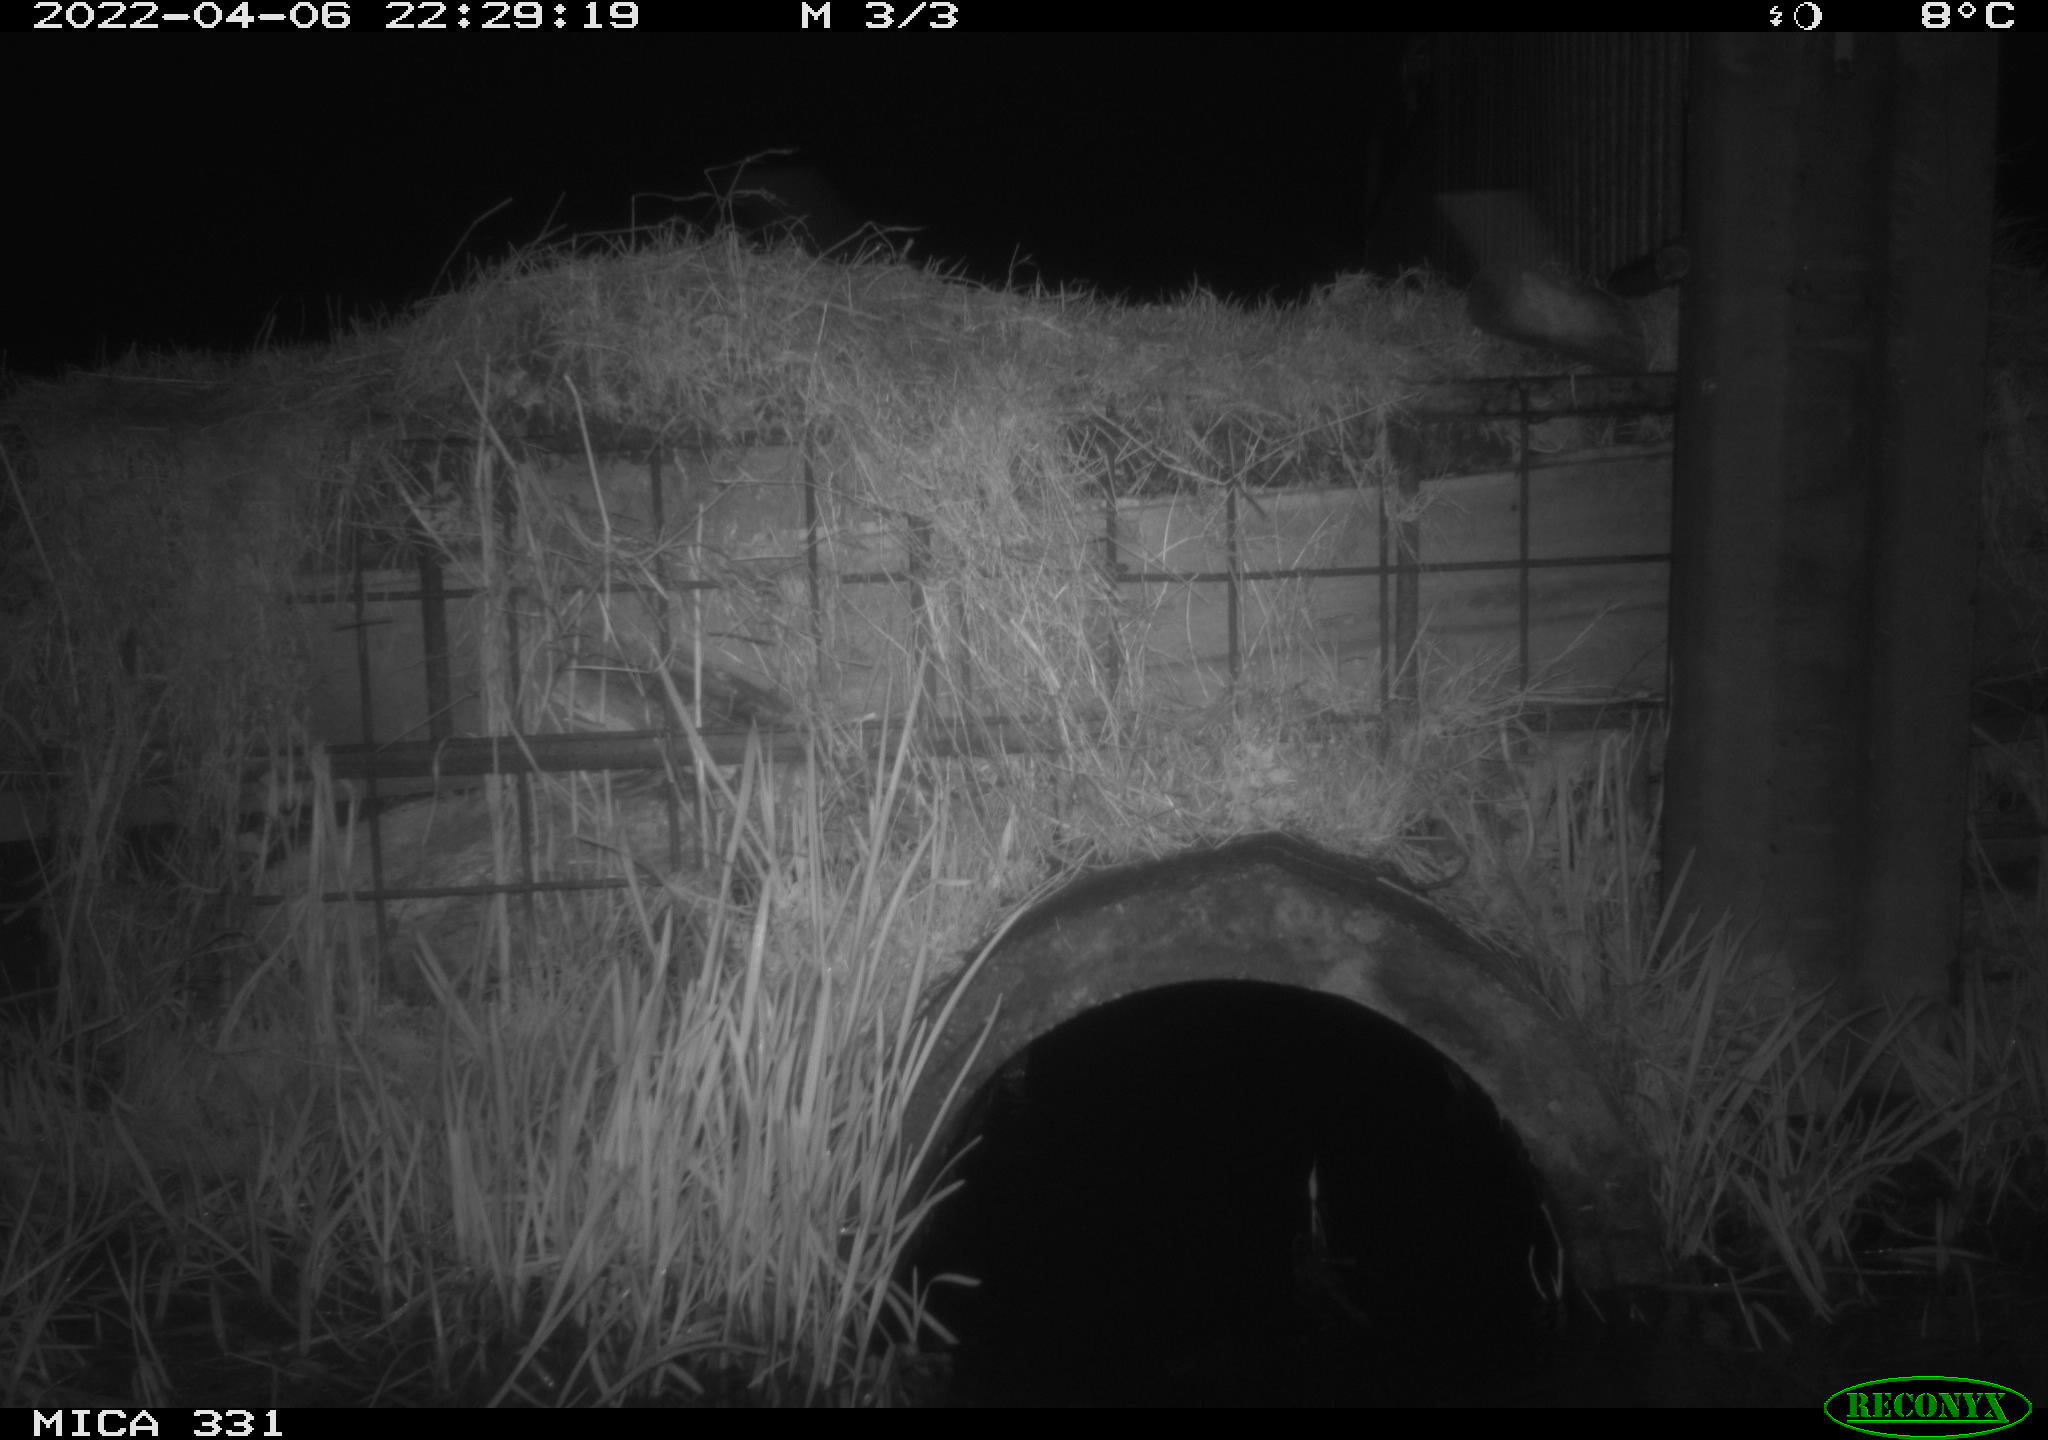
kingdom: Animalia
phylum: Chordata
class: Mammalia
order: Rodentia
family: Muridae
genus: Rattus
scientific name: Rattus norvegicus
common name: Brown rat
